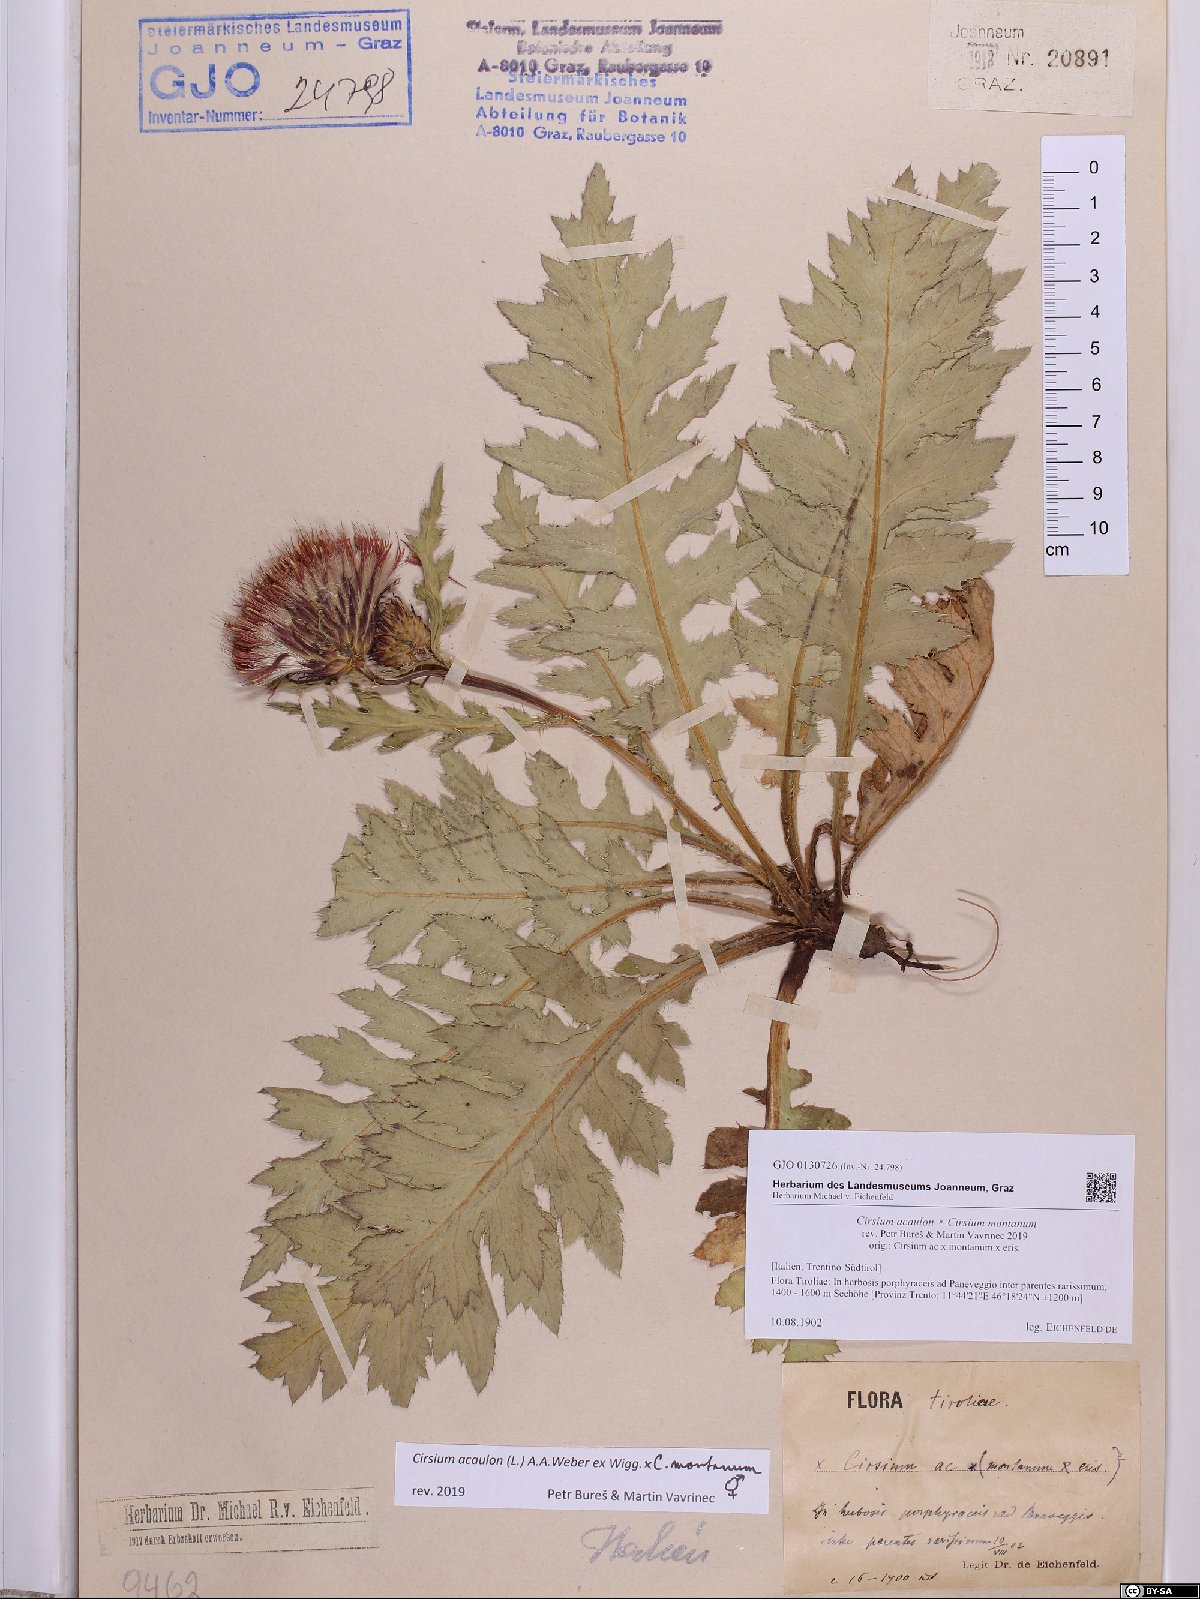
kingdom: Plantae
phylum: Tracheophyta
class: Magnoliopsida
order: Asterales
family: Asteraceae
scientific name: Asteraceae
